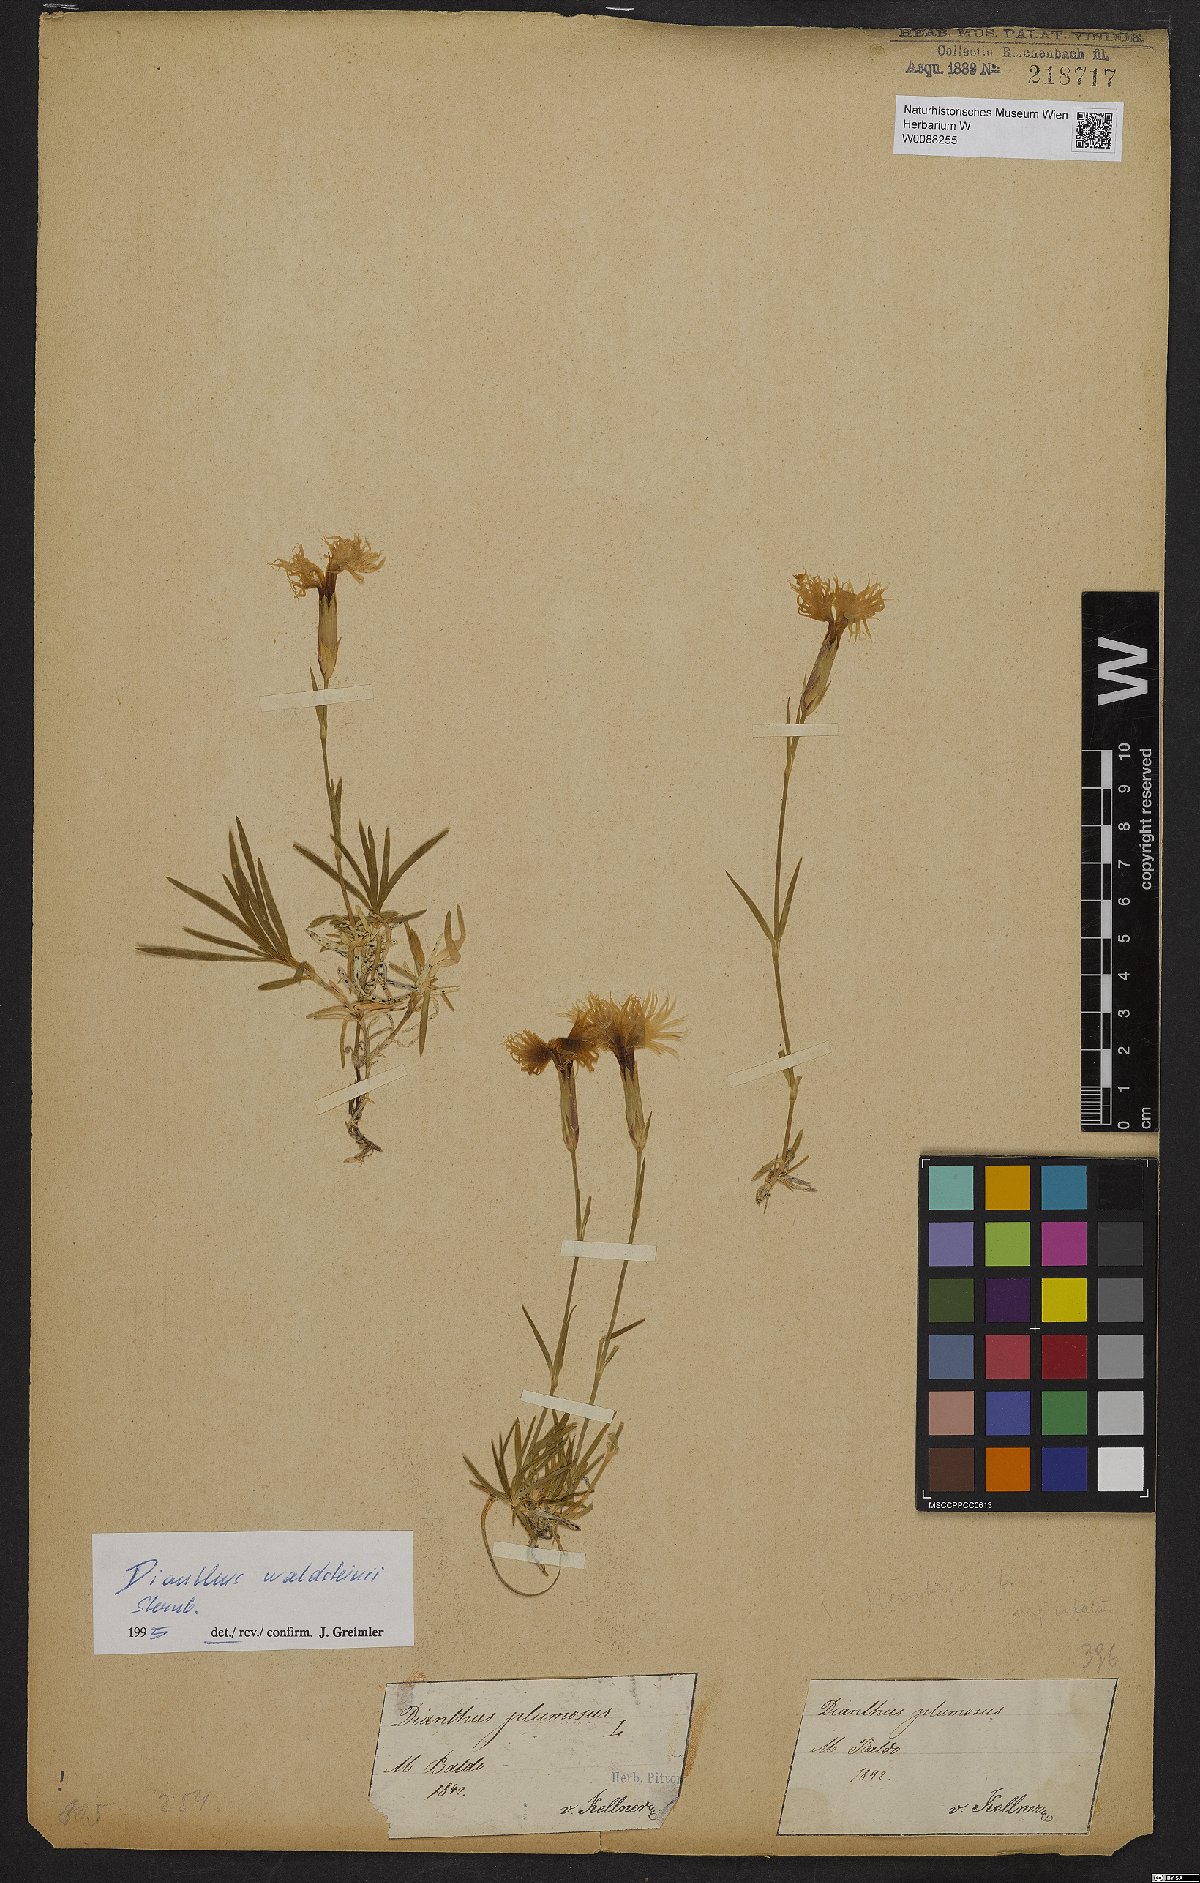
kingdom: Plantae
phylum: Tracheophyta
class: Magnoliopsida
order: Caryophyllales
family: Caryophyllaceae
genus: Dianthus
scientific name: Dianthus plumarius
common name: Pink
